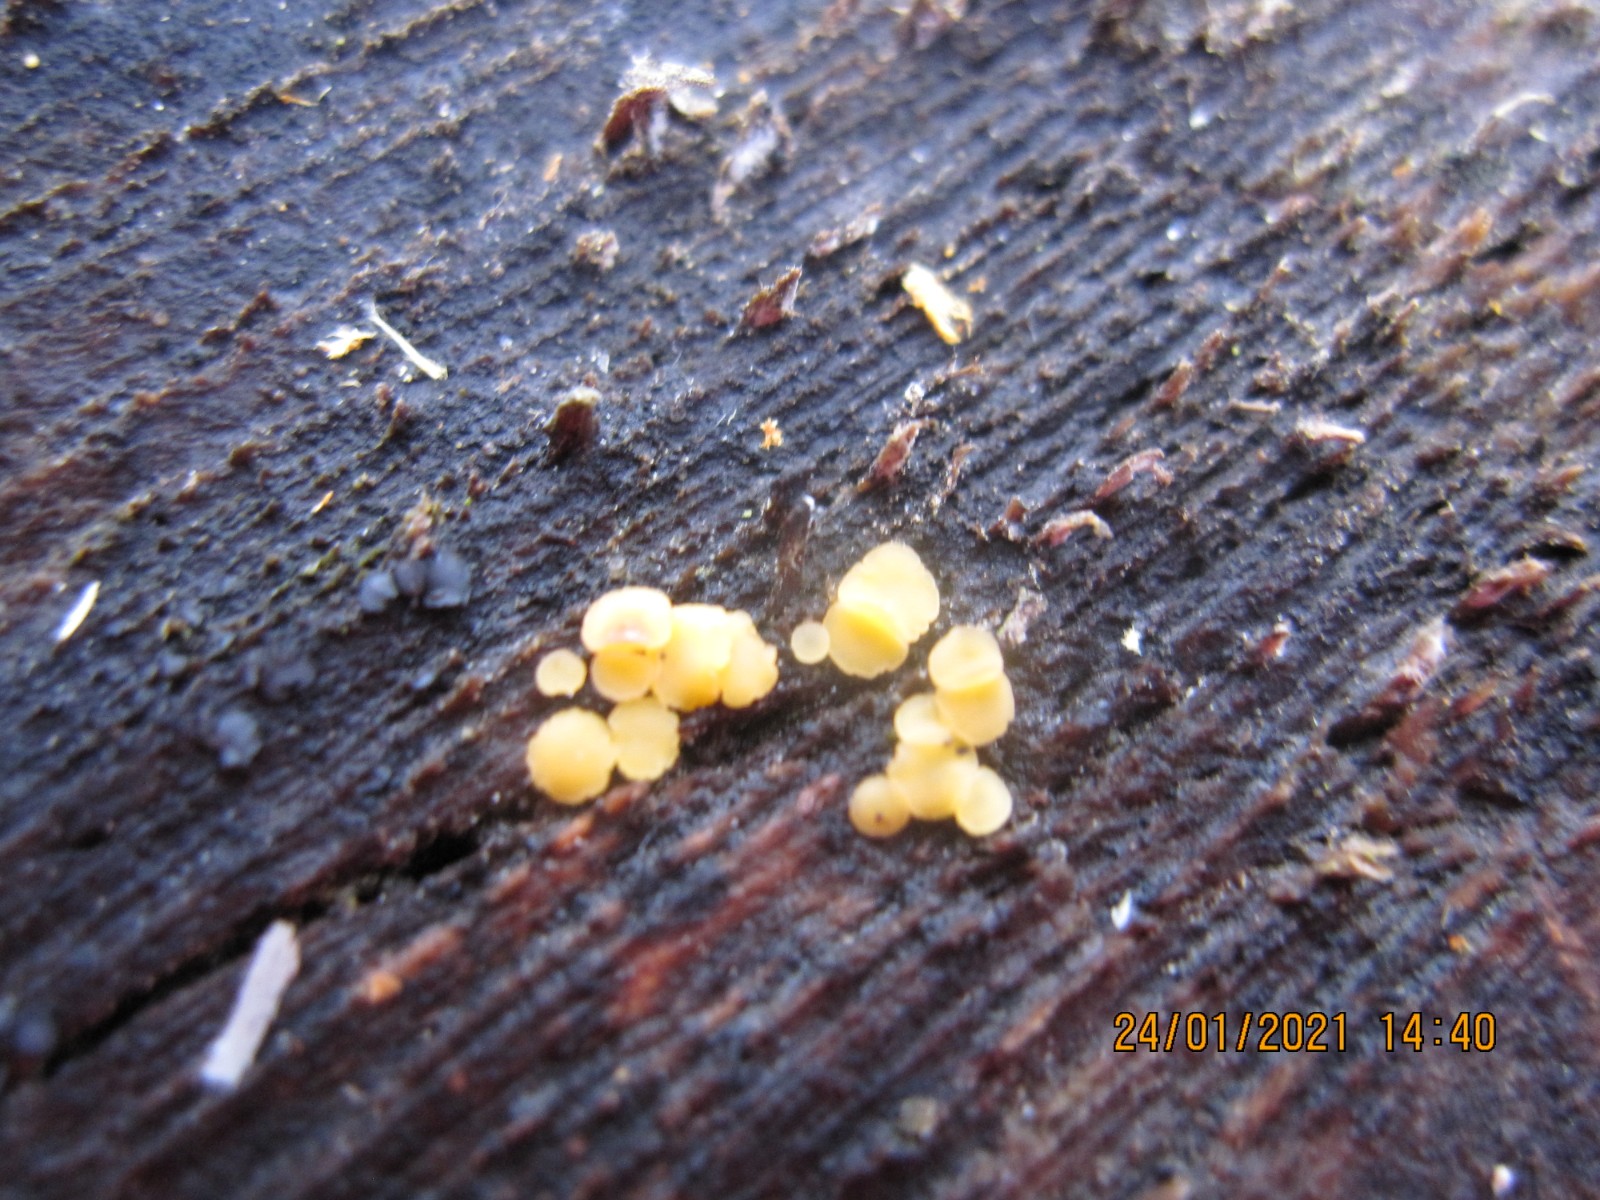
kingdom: Fungi
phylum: Ascomycota
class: Leotiomycetes
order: Helotiales
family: Helotiaceae
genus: Bisporella
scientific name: Bisporella subpallida
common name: lys snitskive
